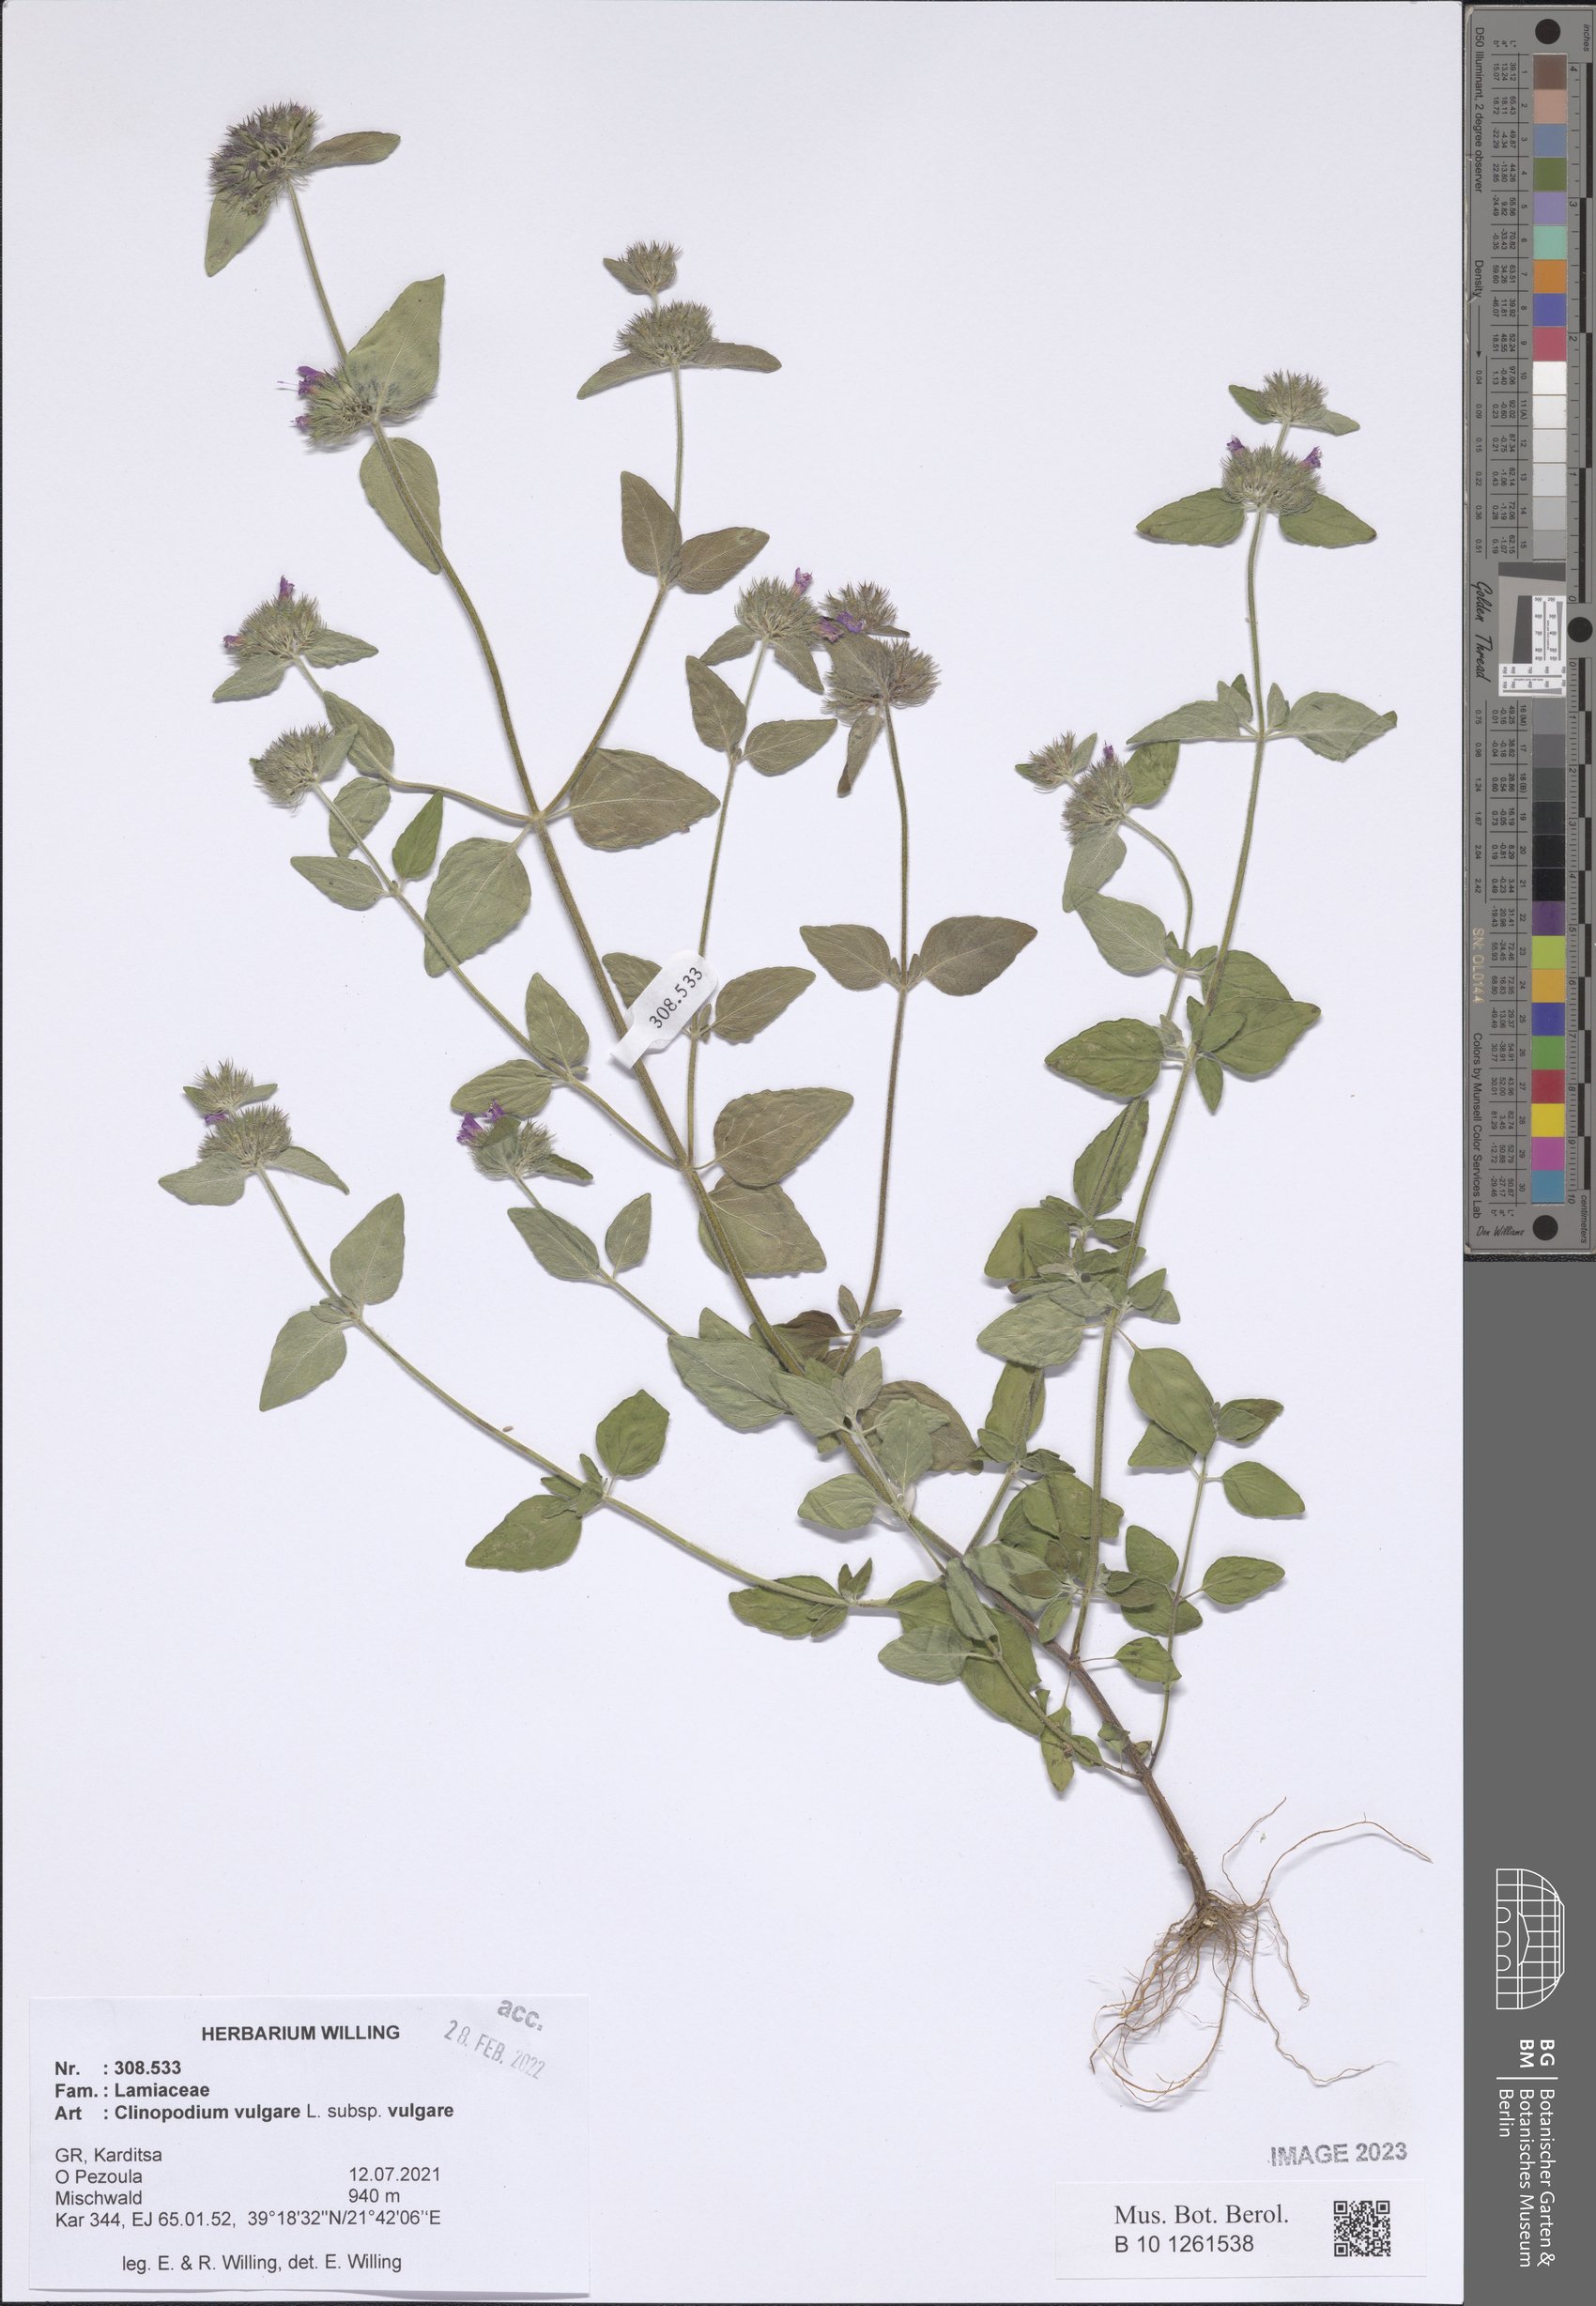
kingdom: Plantae
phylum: Tracheophyta
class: Magnoliopsida
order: Lamiales
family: Lamiaceae
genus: Clinopodium
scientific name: Clinopodium vulgare
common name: Wild basil
